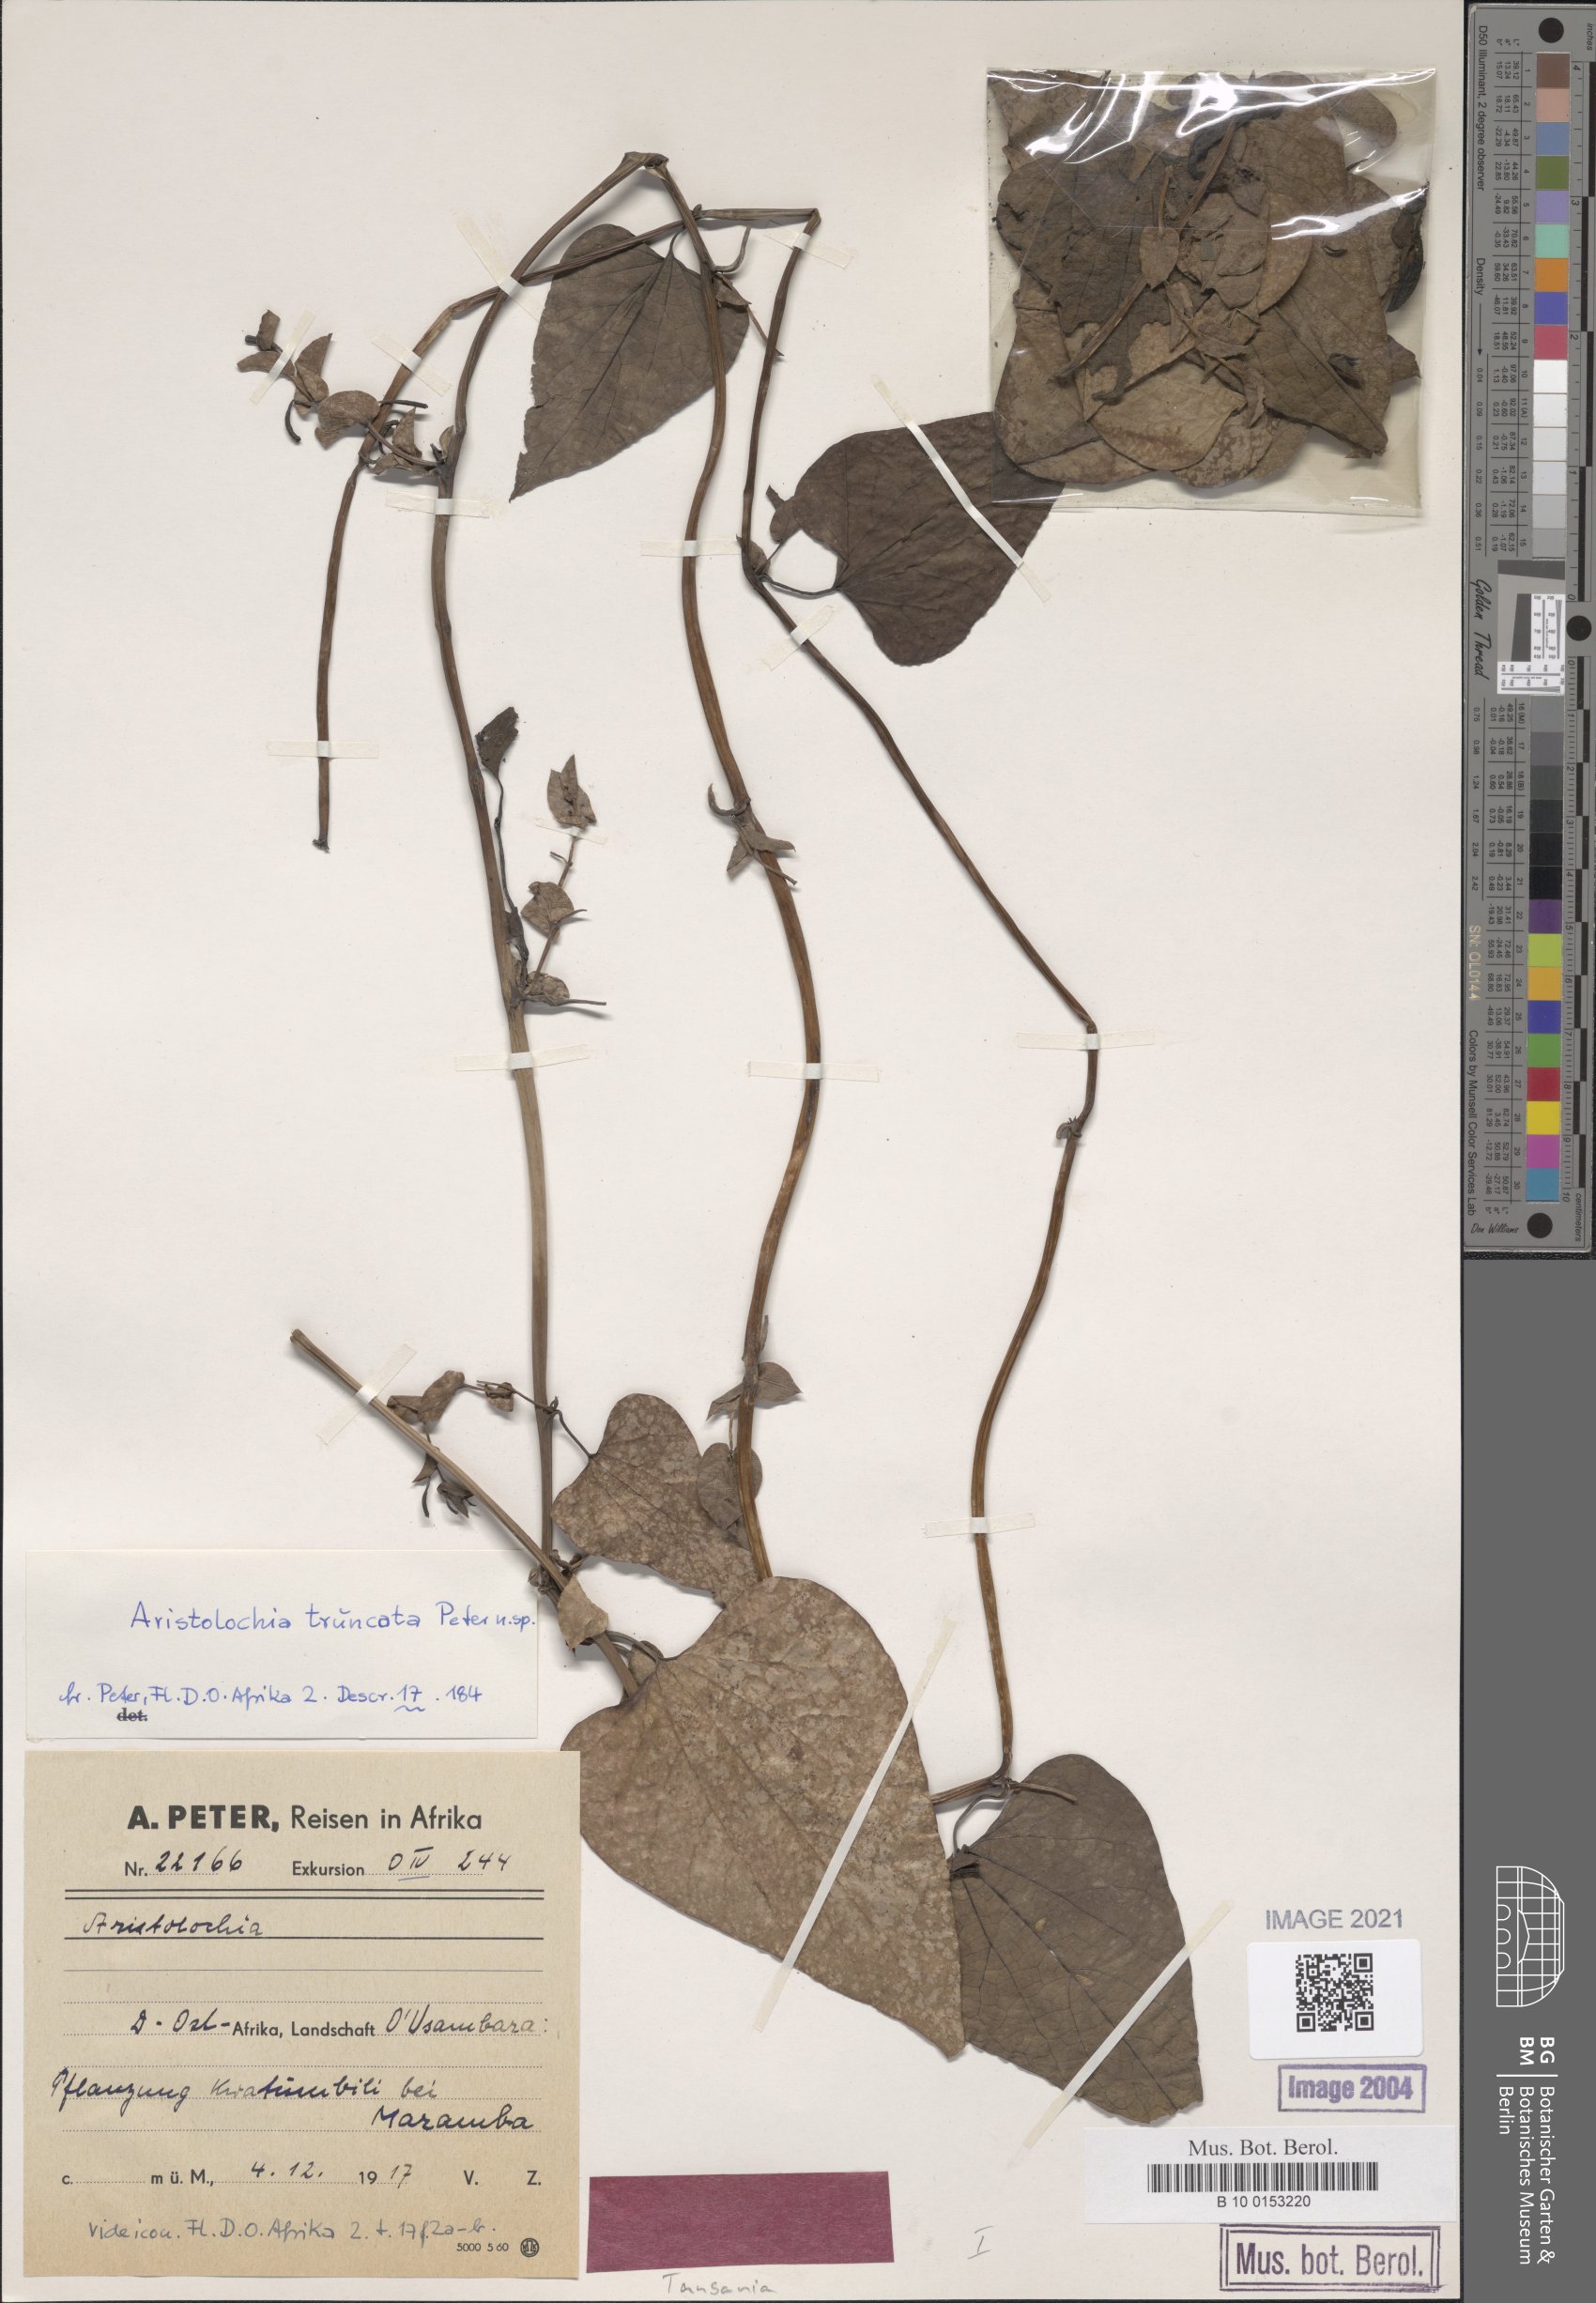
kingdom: Plantae
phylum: Tracheophyta
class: Magnoliopsida
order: Piperales
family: Aristolochiaceae
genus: Aristolochia
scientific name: Aristolochia albida
